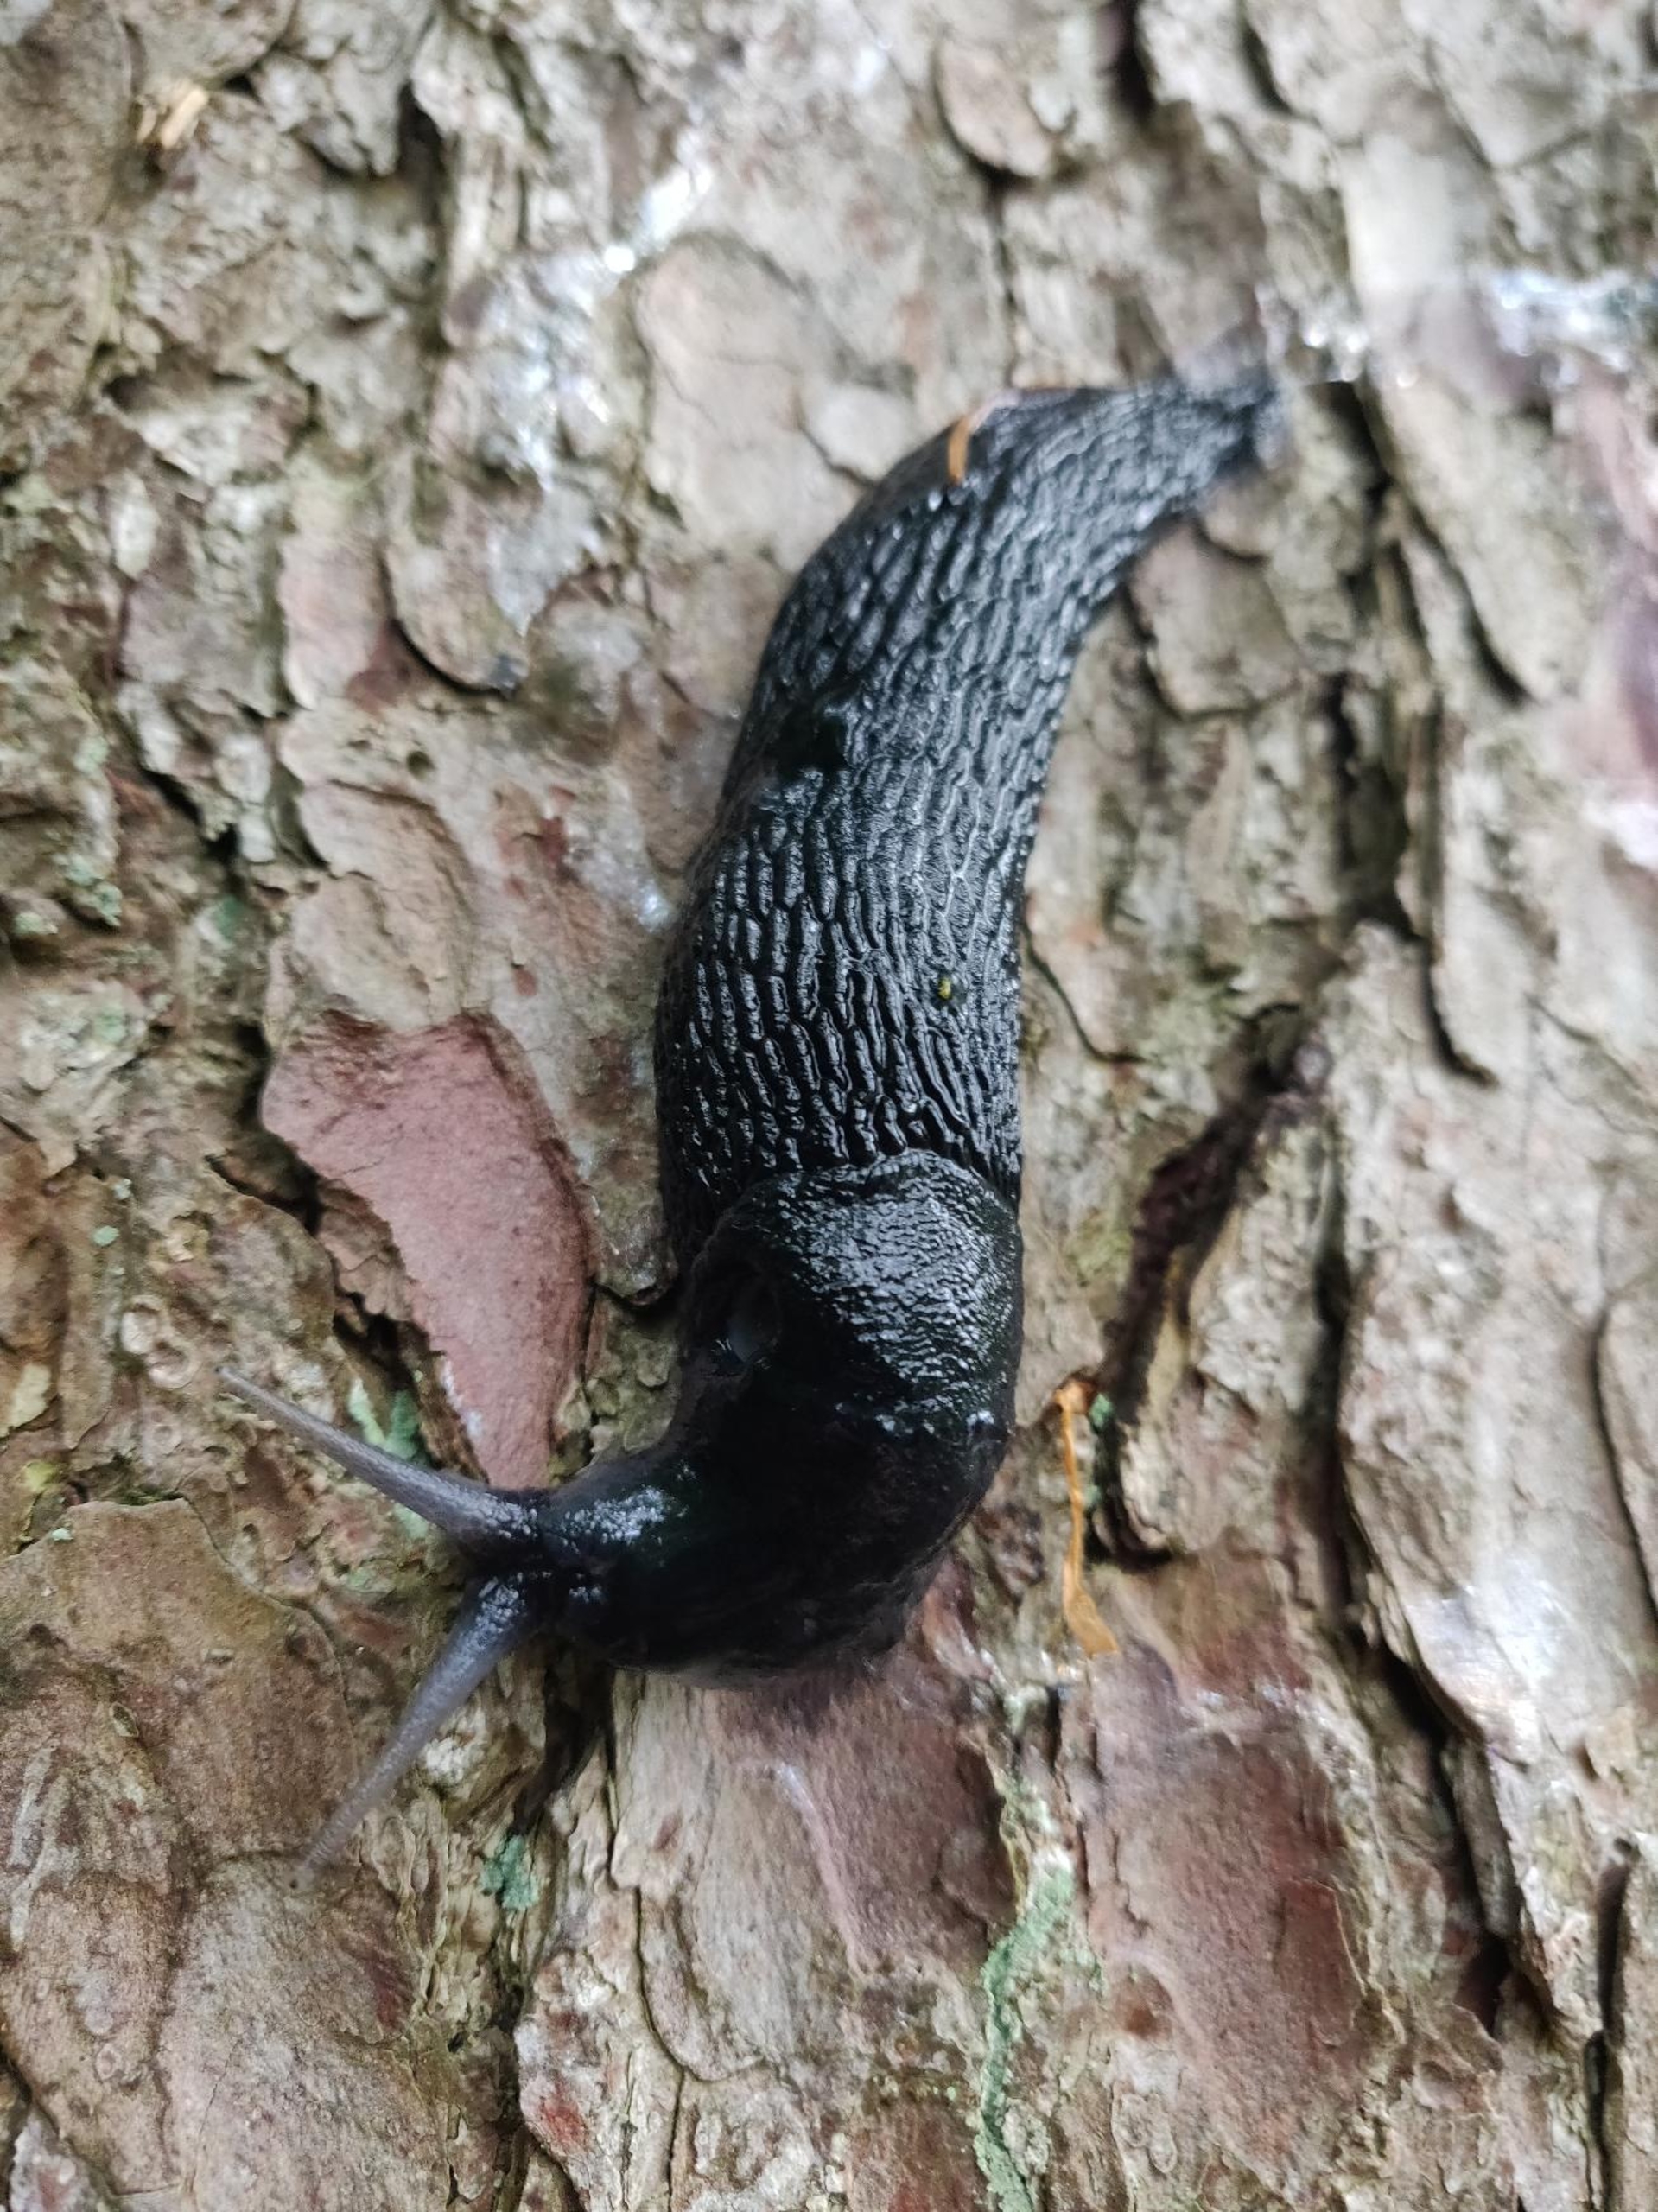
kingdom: Animalia
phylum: Mollusca
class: Gastropoda
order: Stylommatophora
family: Arionidae
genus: Arion
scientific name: Arion ater
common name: Sort skovsnegl
